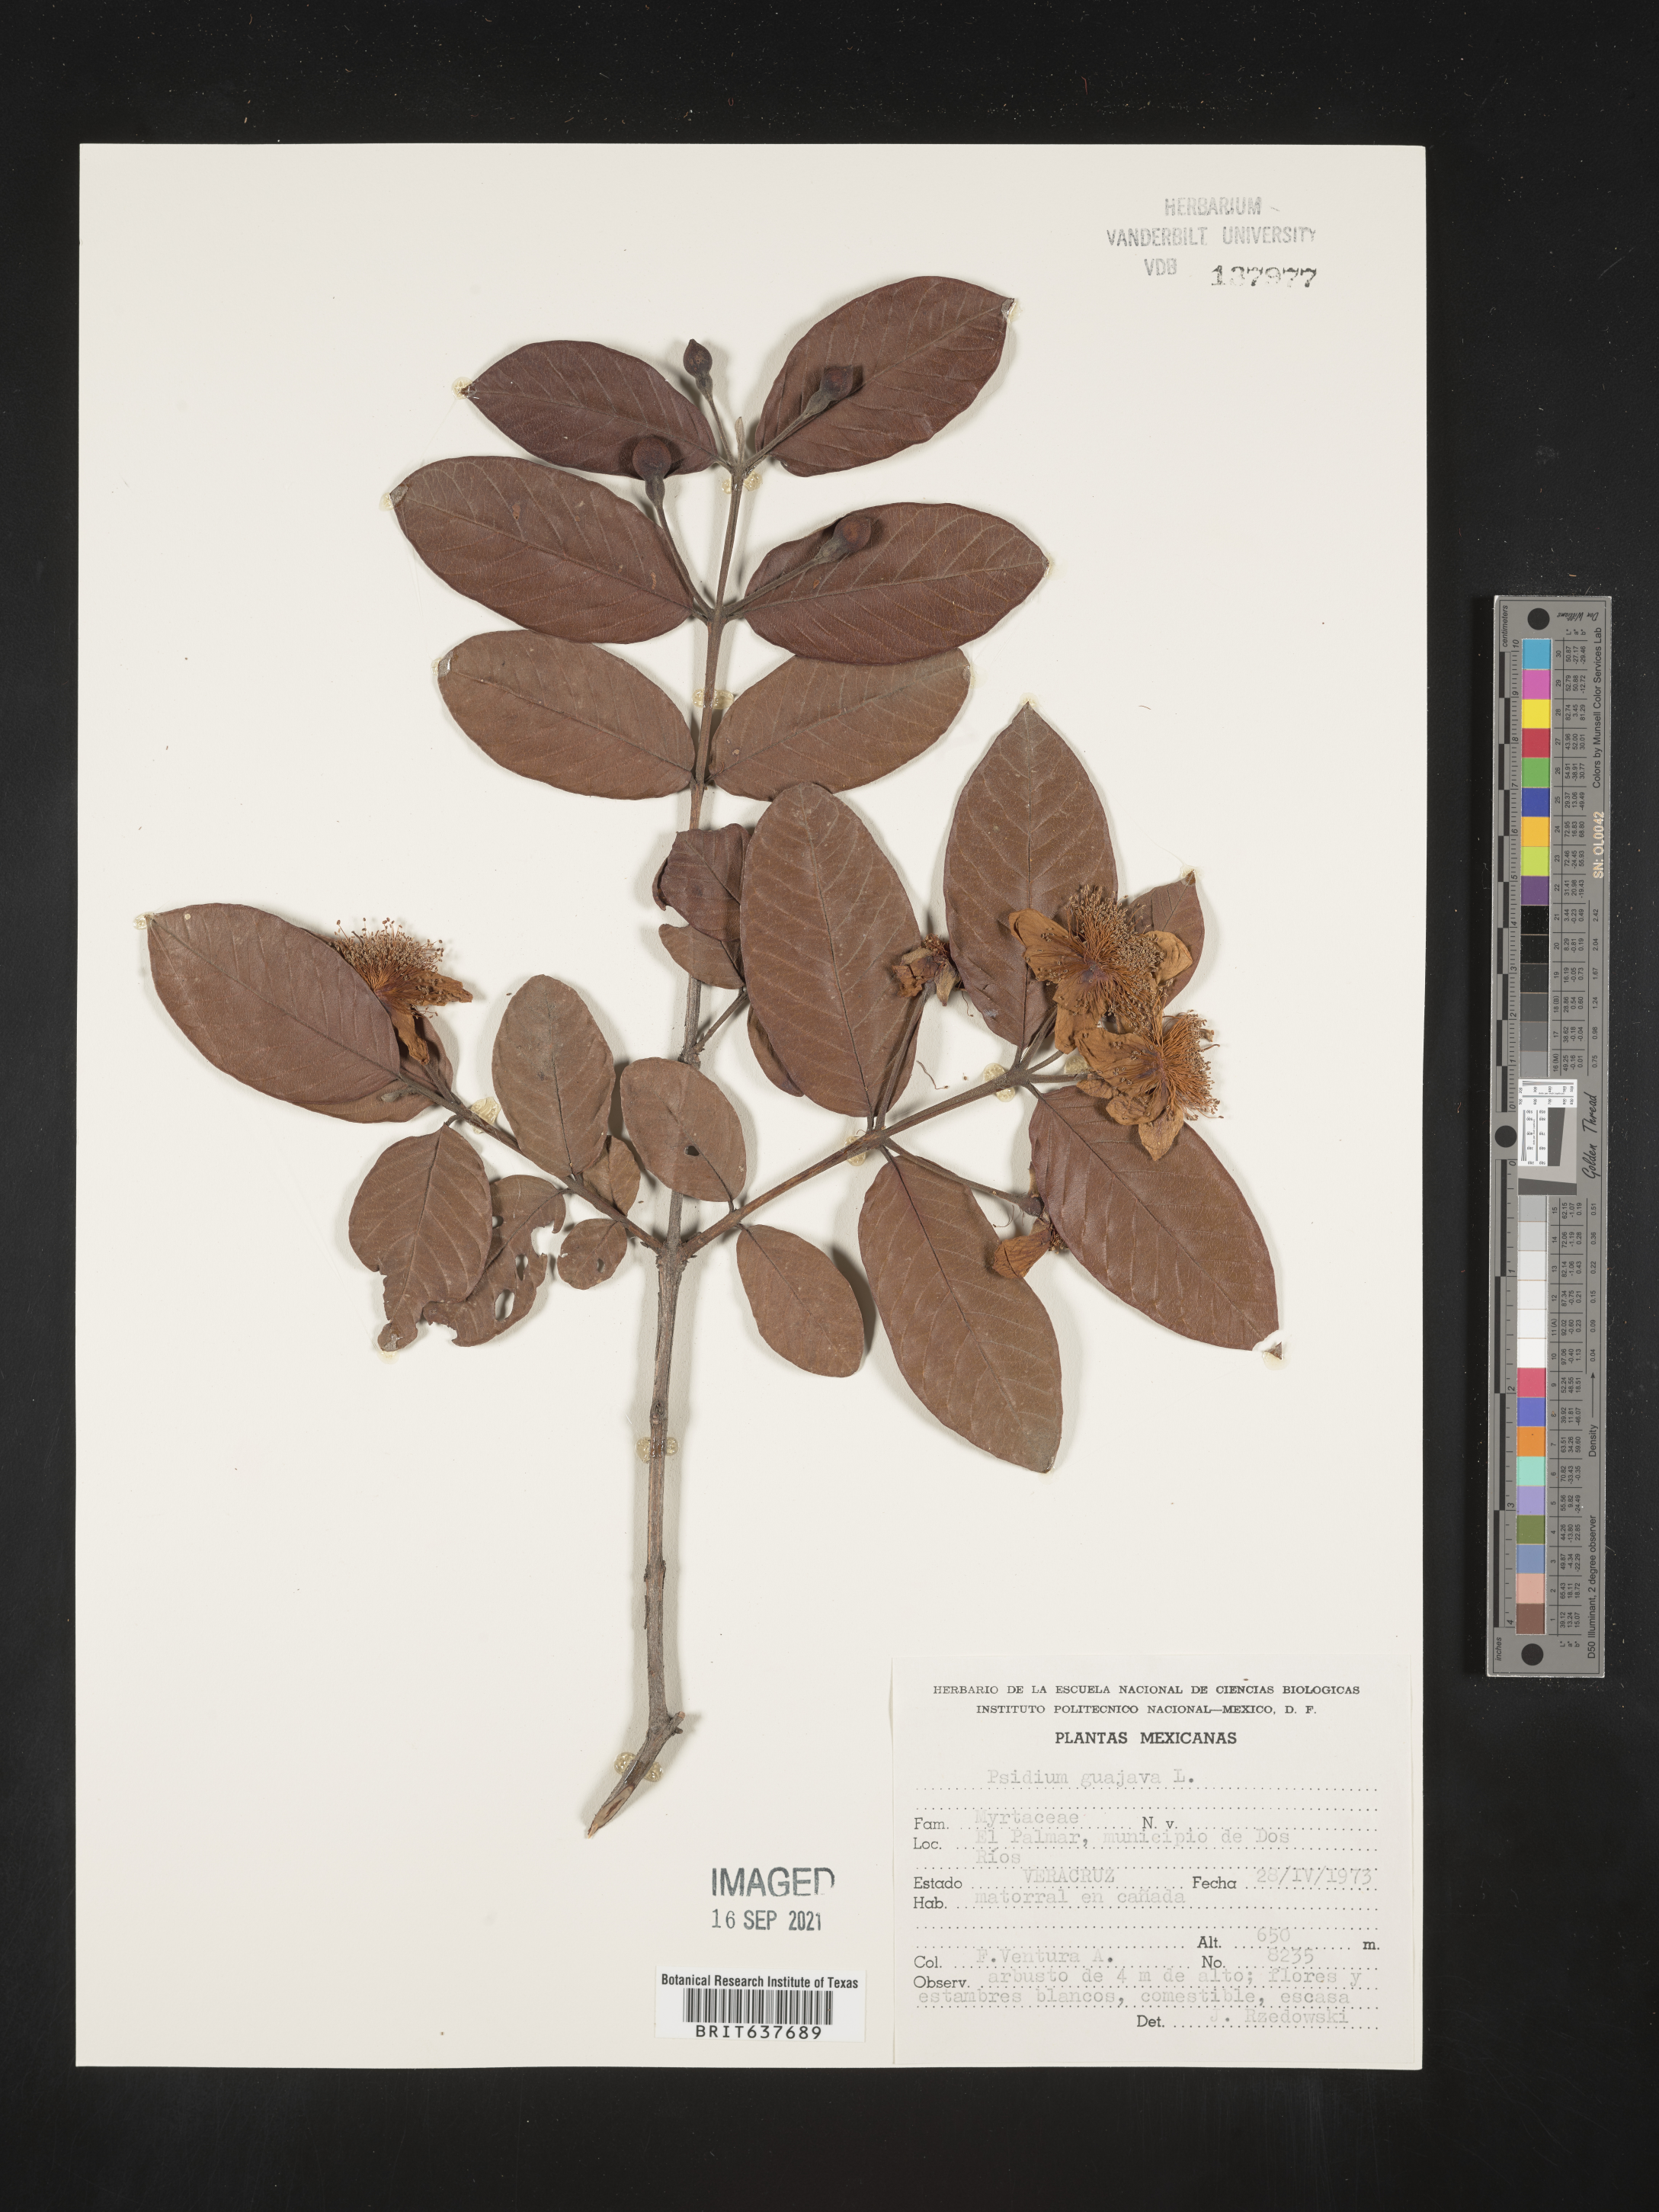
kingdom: Plantae
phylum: Tracheophyta
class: Magnoliopsida
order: Myrtales
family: Myrtaceae
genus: Psidium
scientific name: Psidium
